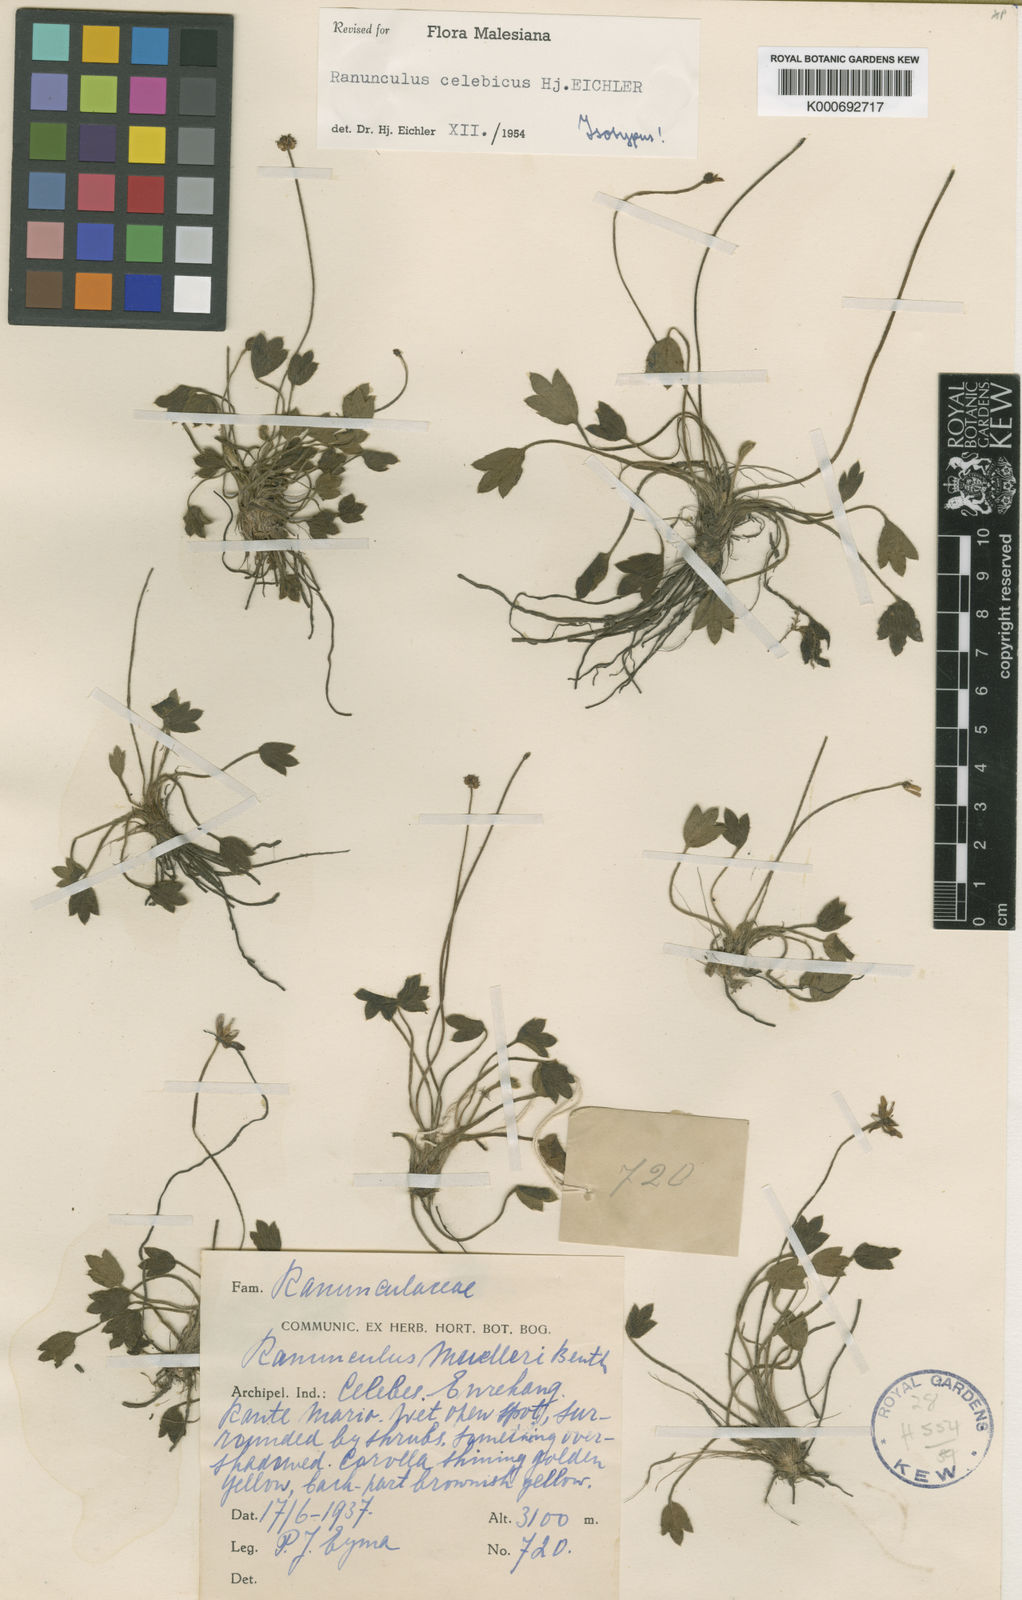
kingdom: Plantae
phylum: Tracheophyta
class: Magnoliopsida
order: Ranunculales
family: Ranunculaceae
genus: Ranunculus
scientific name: Ranunculus celebicus
